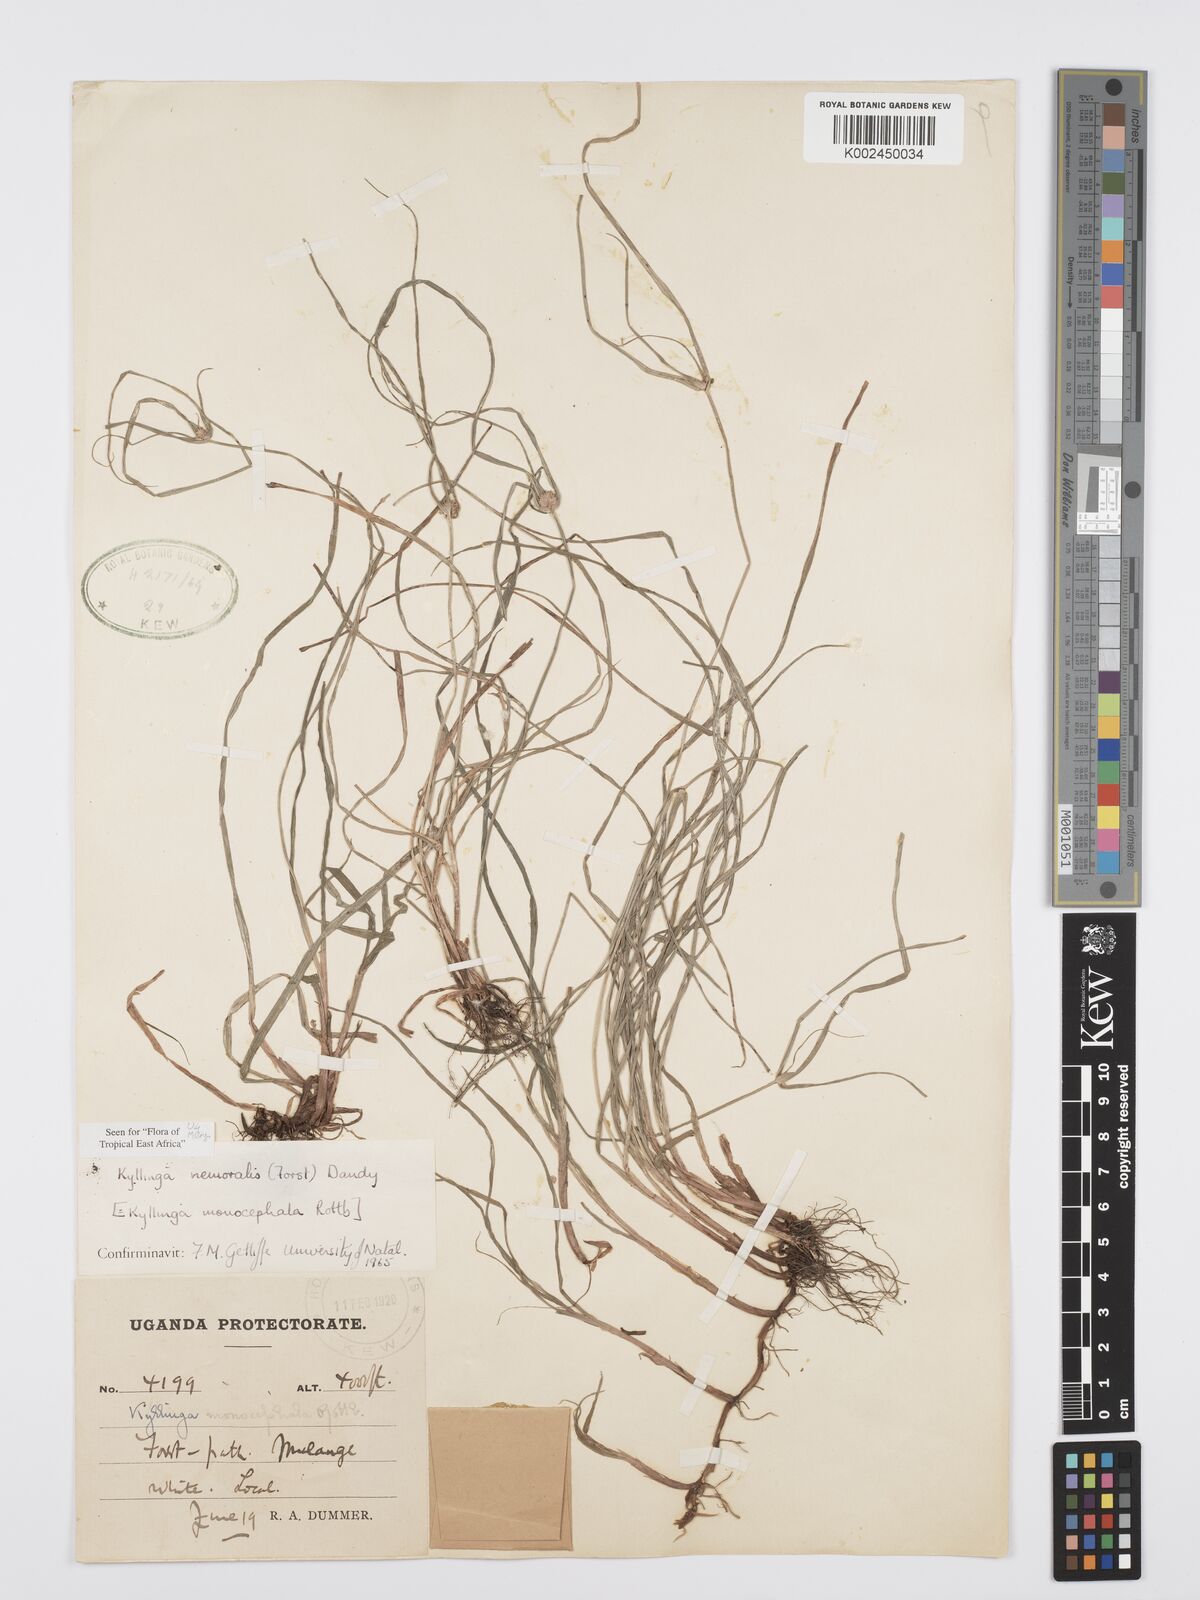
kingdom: Plantae
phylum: Tracheophyta
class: Liliopsida
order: Poales
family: Cyperaceae
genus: Cyperus
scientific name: Cyperus nemoralis
